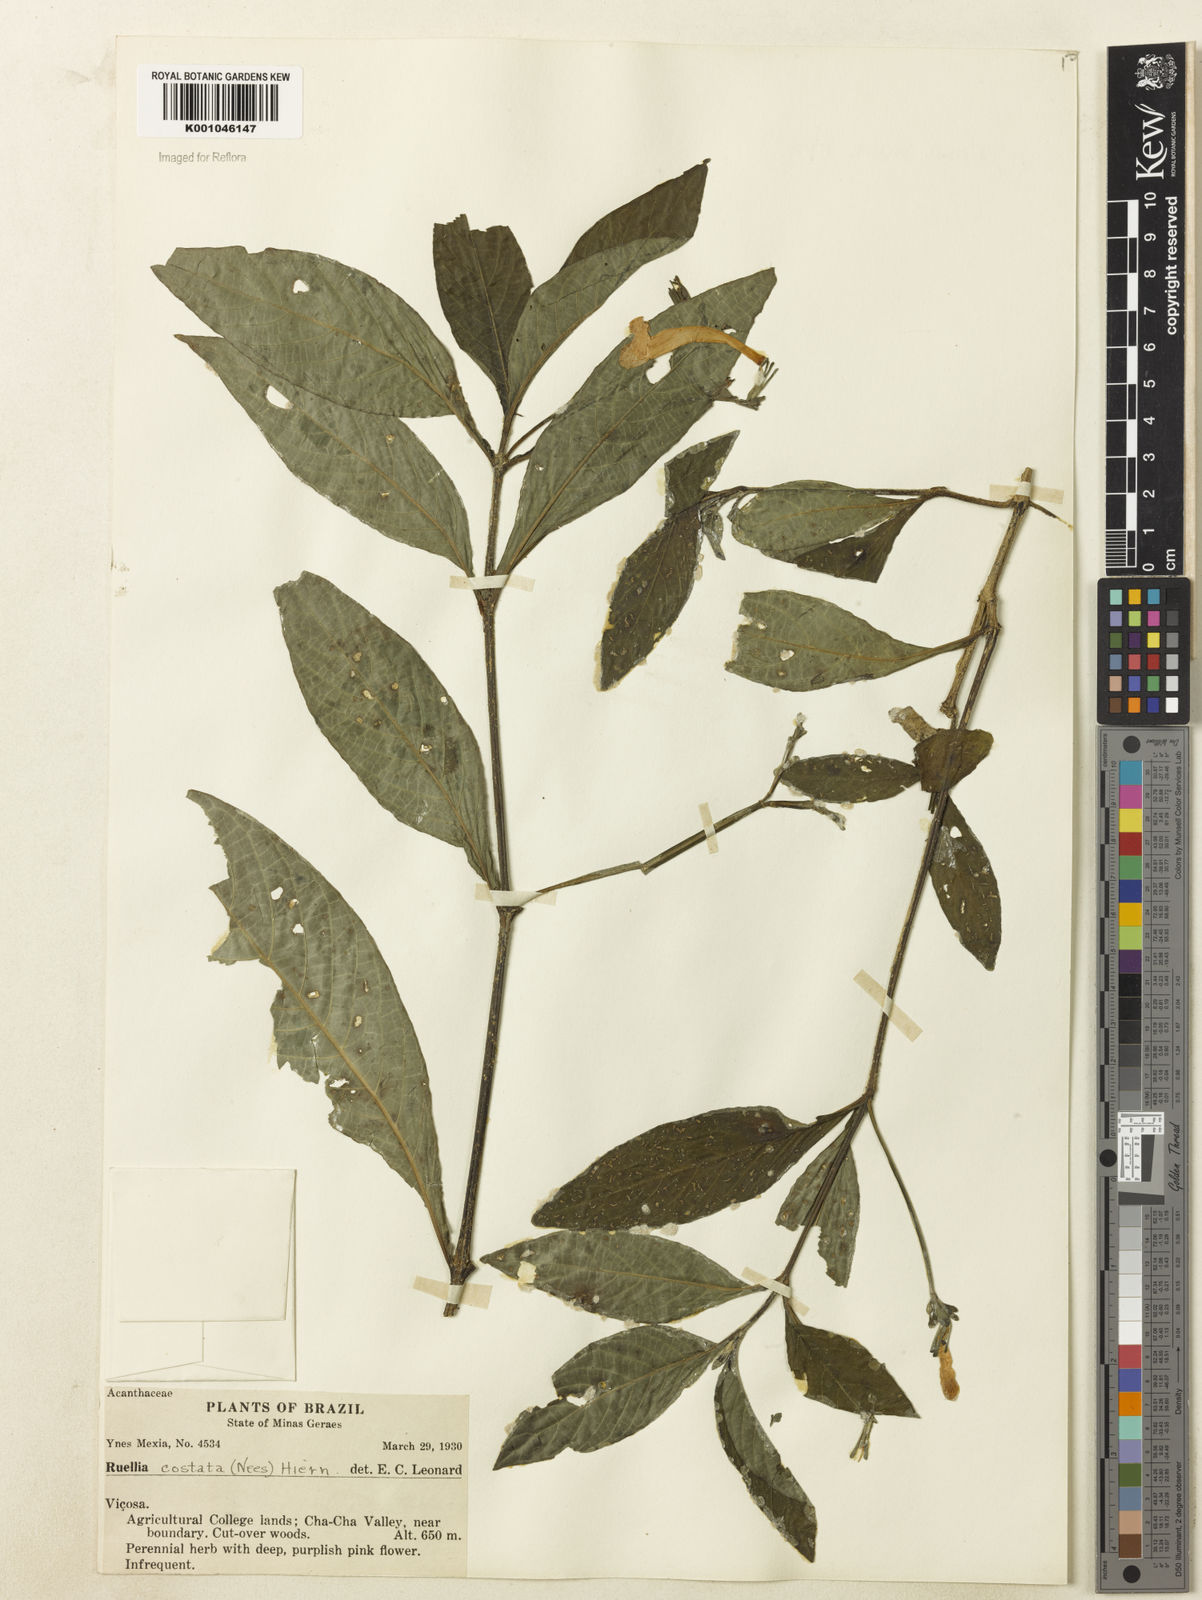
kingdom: Plantae
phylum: Tracheophyta
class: Magnoliopsida
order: Lamiales
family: Acanthaceae
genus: Ruellia
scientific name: Ruellia costata
